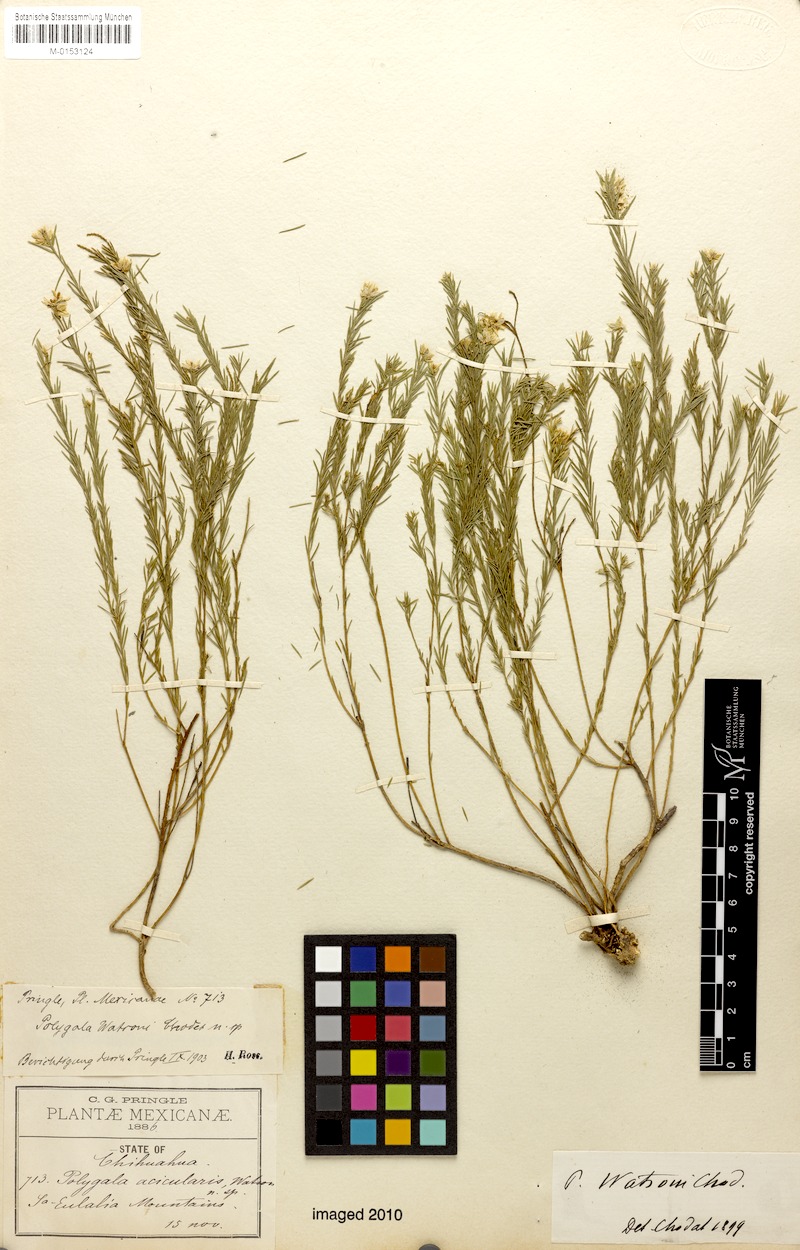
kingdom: Plantae
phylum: Tracheophyta
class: Magnoliopsida
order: Fabales
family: Polygalaceae
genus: Polygala
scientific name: Polygala watsonii
